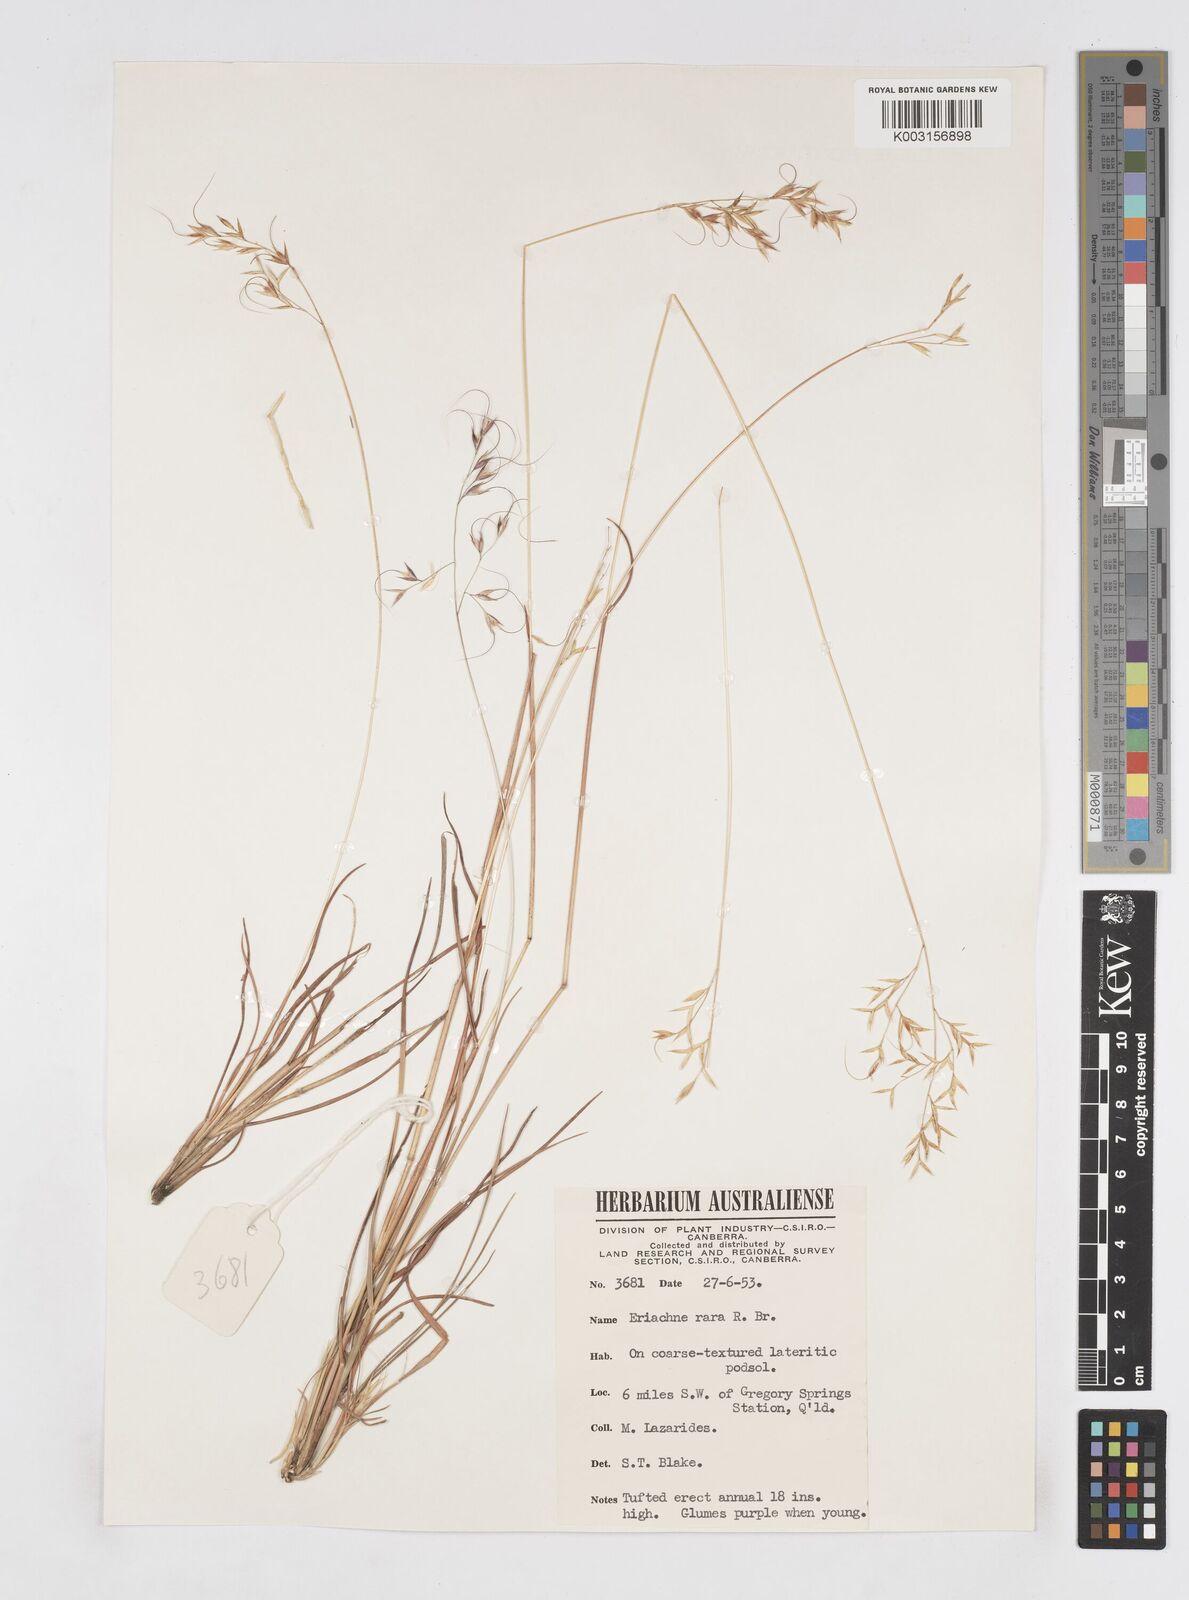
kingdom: Plantae
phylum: Tracheophyta
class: Liliopsida
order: Poales
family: Poaceae
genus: Eriachne
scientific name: Eriachne rara
